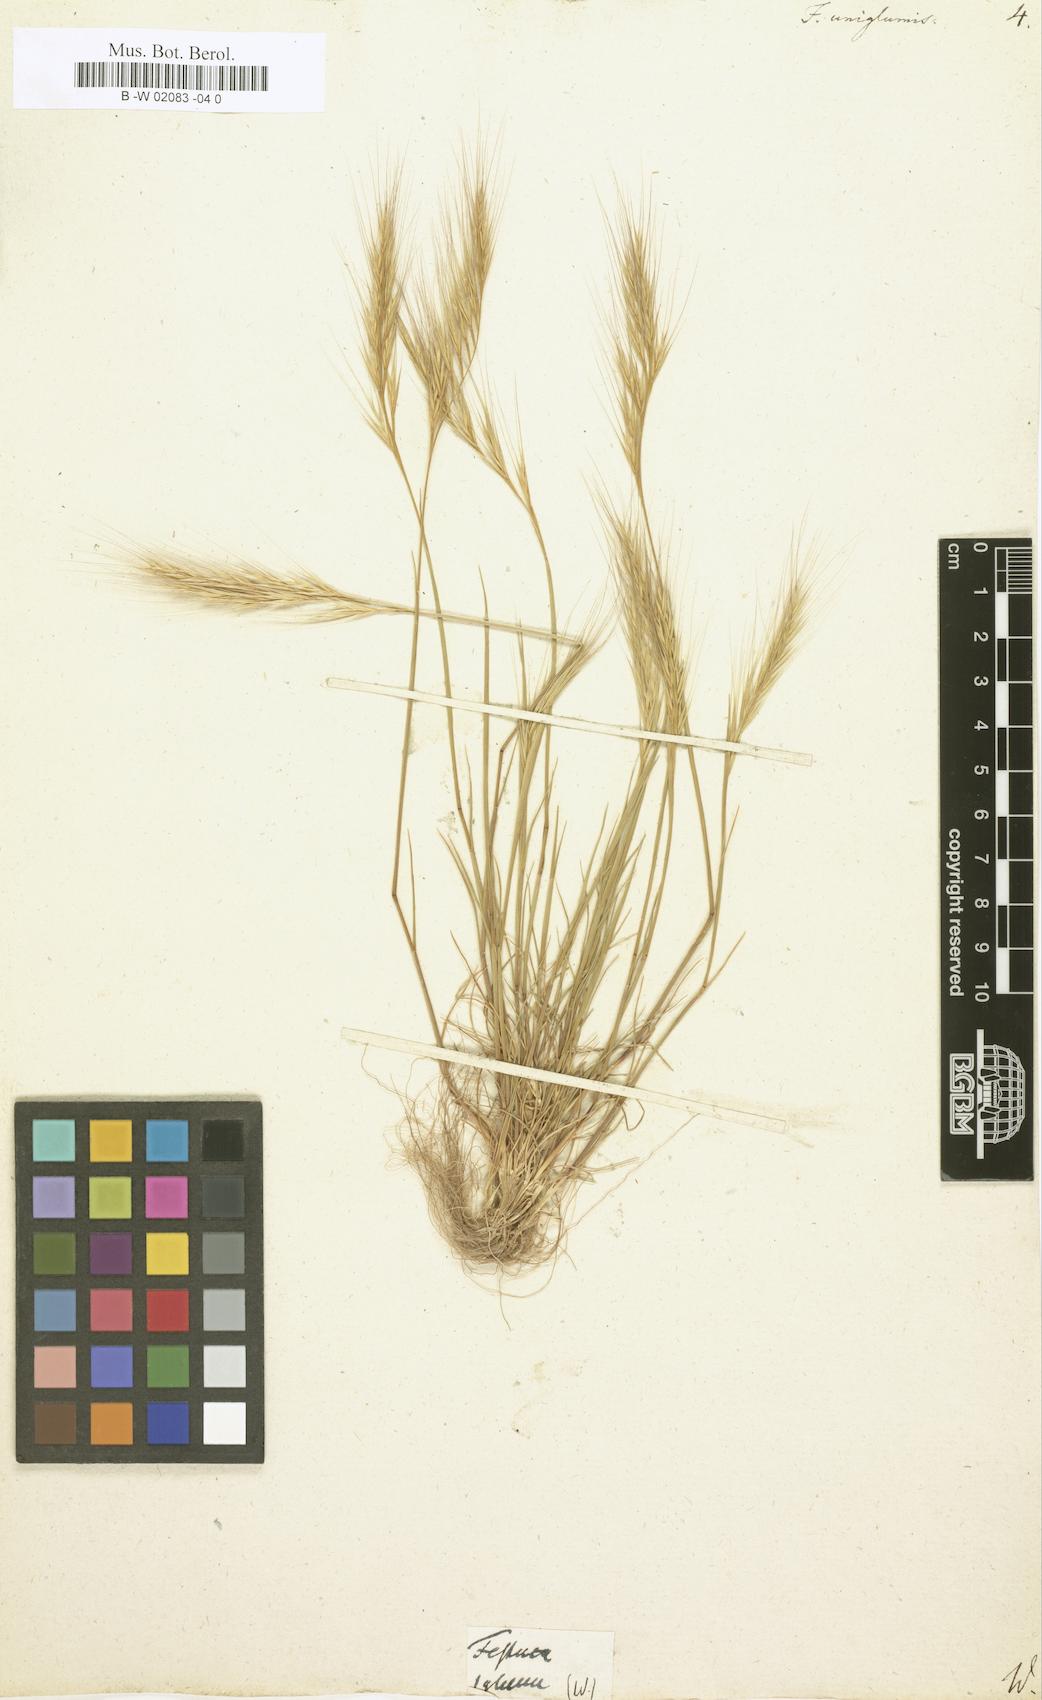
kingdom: Plantae
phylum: Tracheophyta
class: Liliopsida
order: Poales
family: Poaceae
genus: Festuca
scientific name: Festuca
